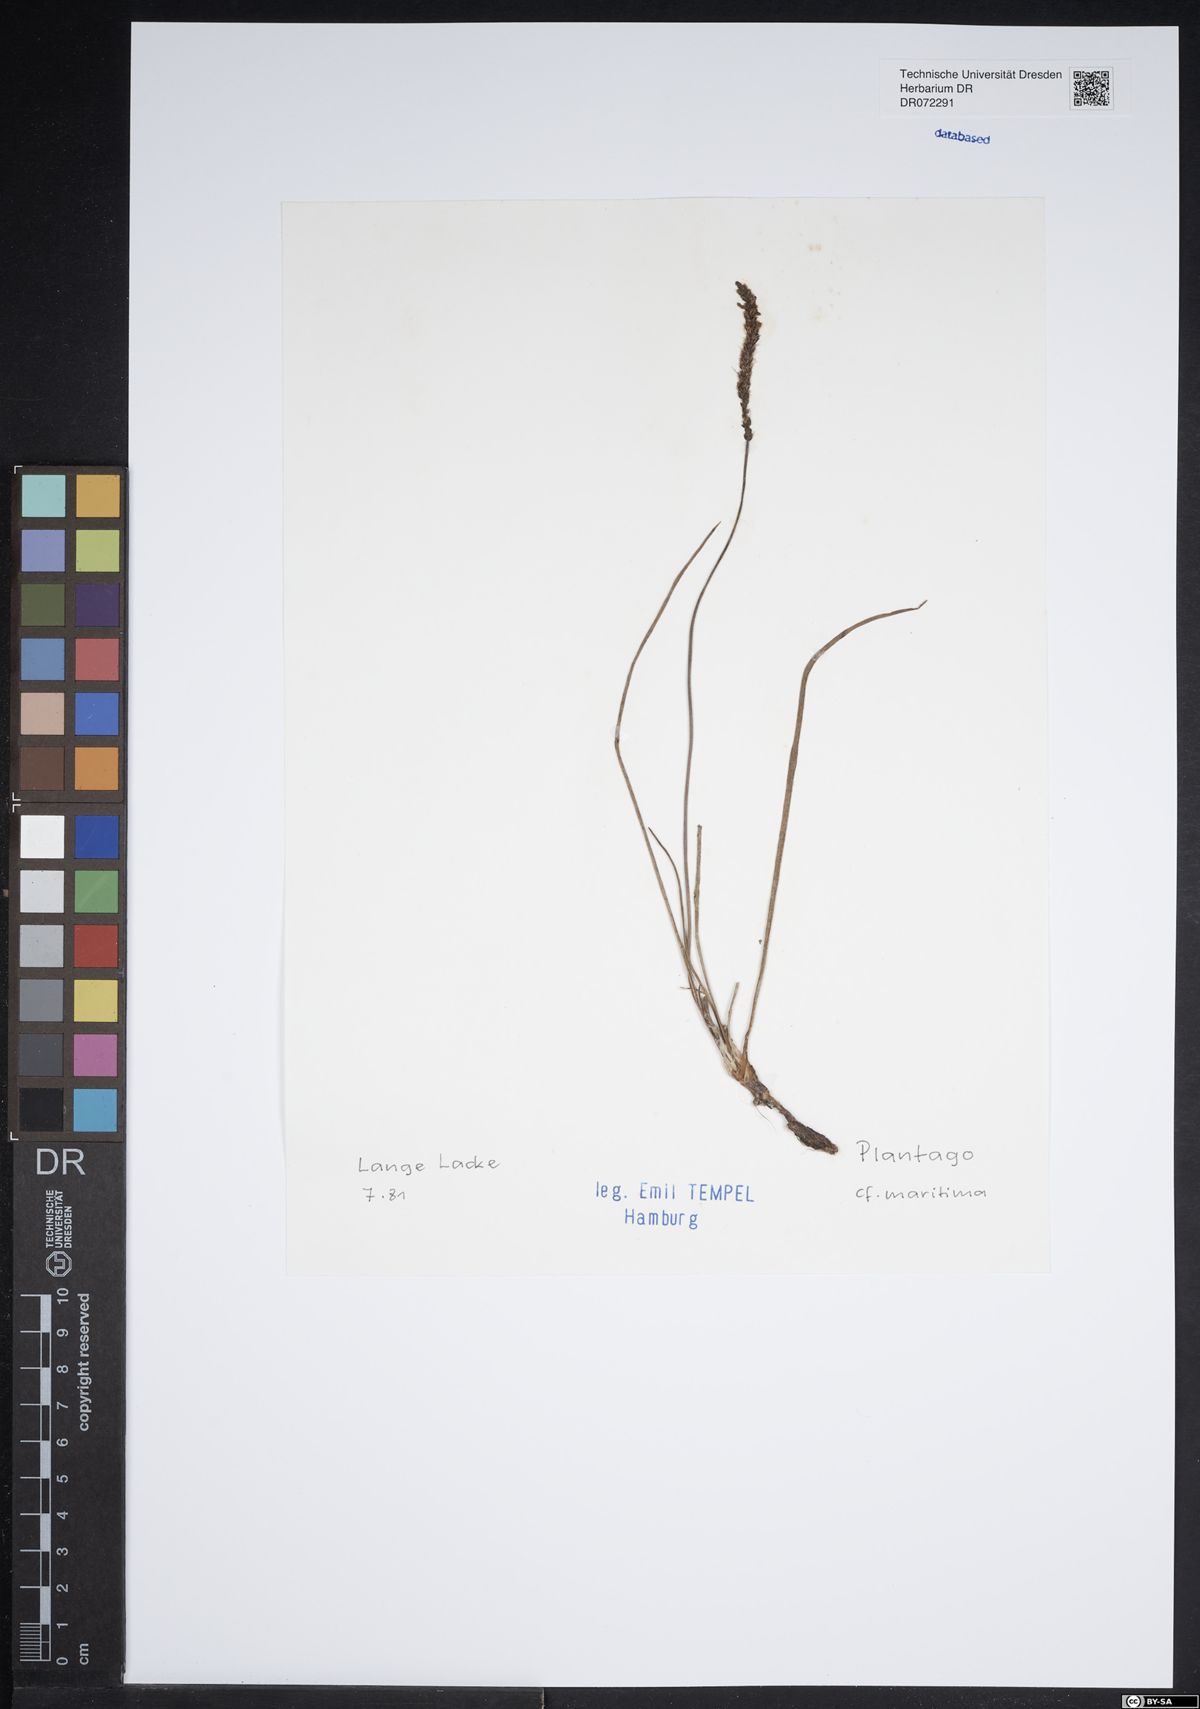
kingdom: Plantae
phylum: Tracheophyta
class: Magnoliopsida
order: Lamiales
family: Plantaginaceae
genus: Plantago
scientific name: Plantago maritima
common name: Sea plantain
